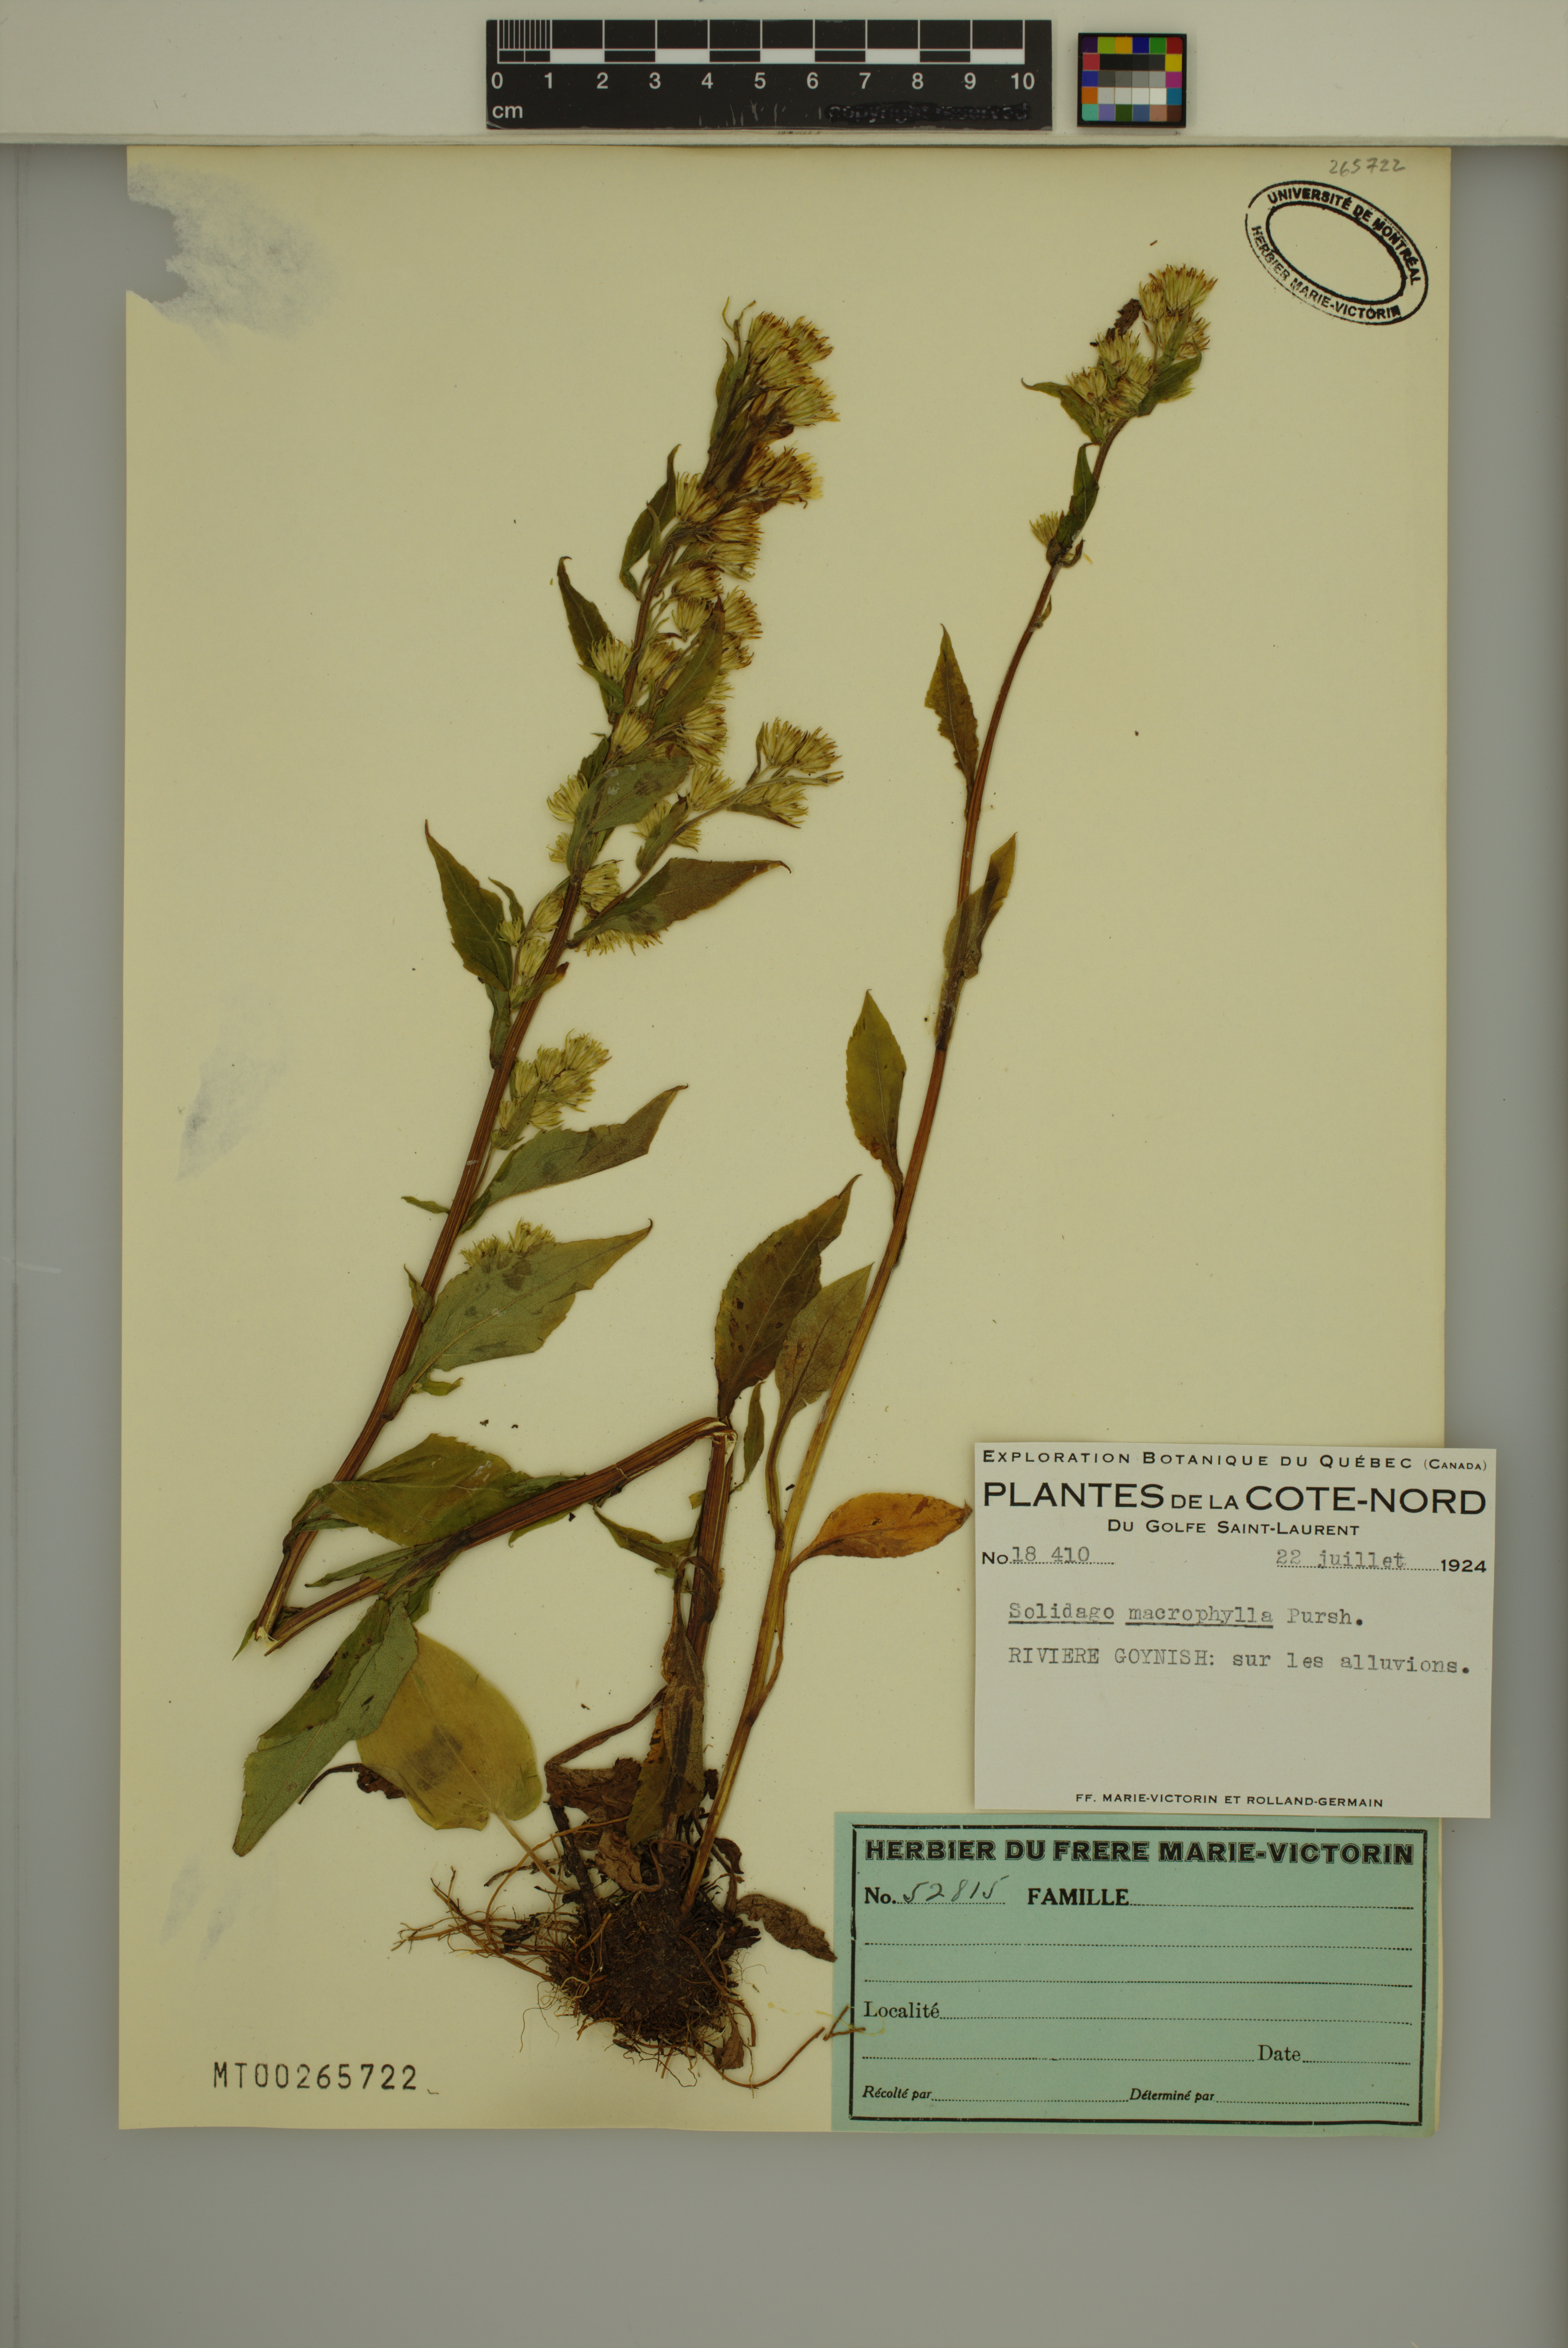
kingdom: Plantae
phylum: Tracheophyta
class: Magnoliopsida
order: Asterales
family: Asteraceae
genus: Solidago
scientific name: Solidago macrophylla
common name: Large-leaved goldenrod
